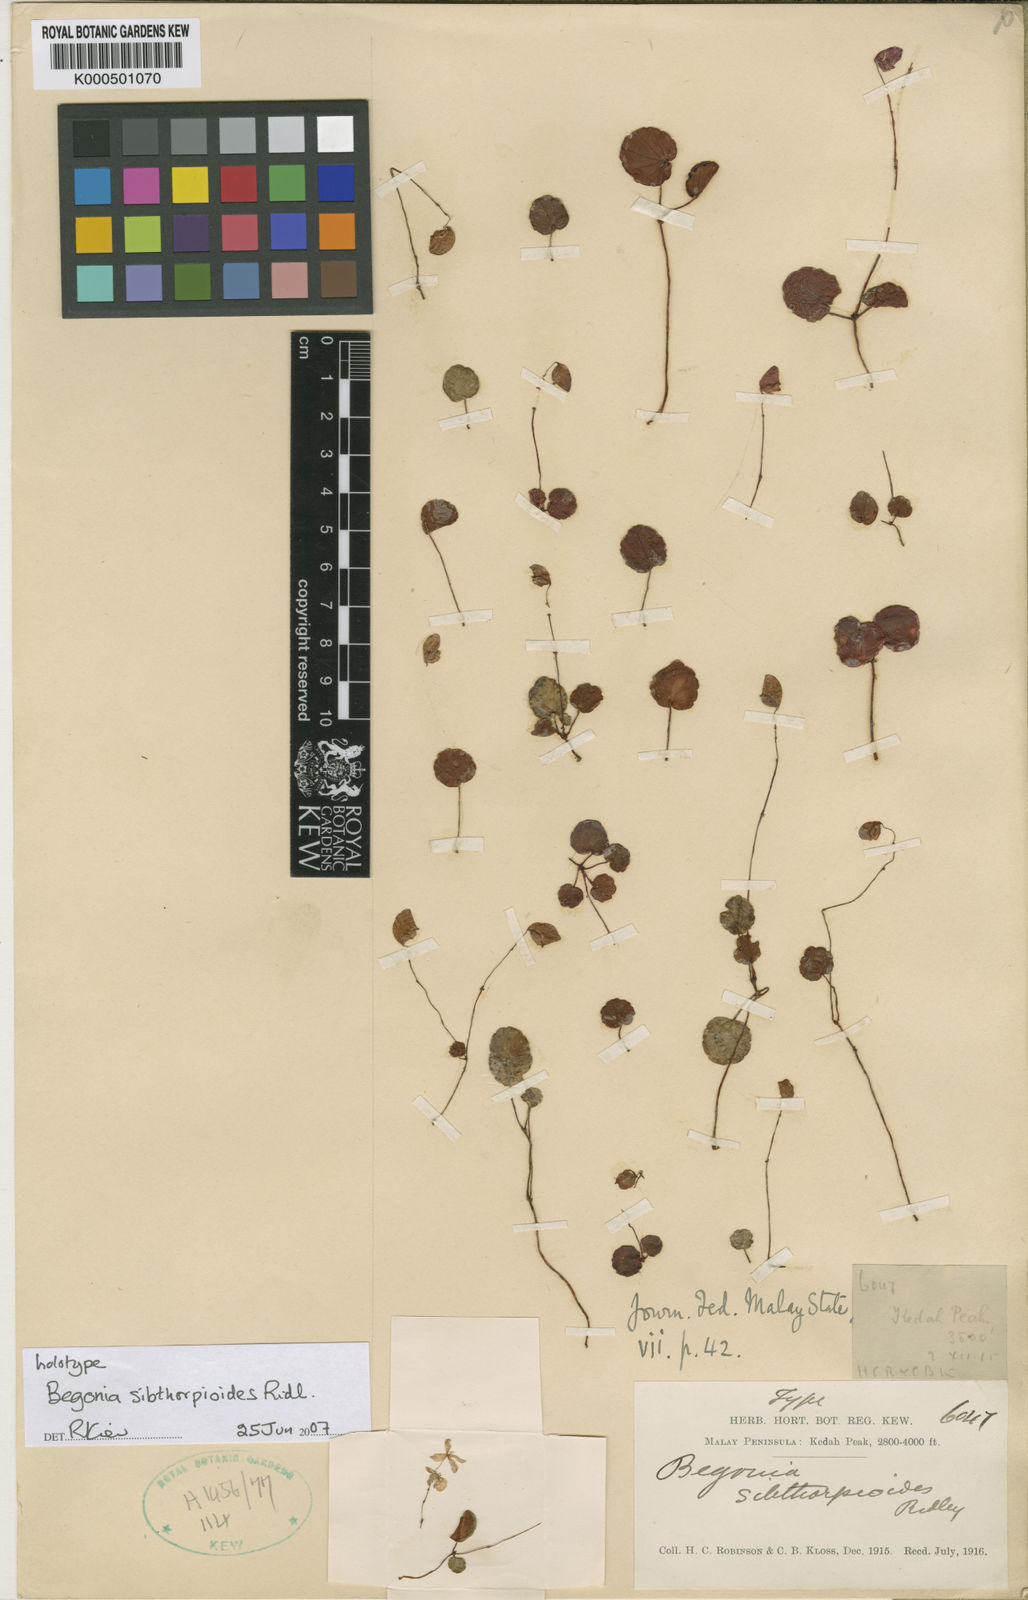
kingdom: Plantae
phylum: Tracheophyta
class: Magnoliopsida
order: Cucurbitales
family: Begoniaceae
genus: Begonia
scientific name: Begonia sibthorpioides
